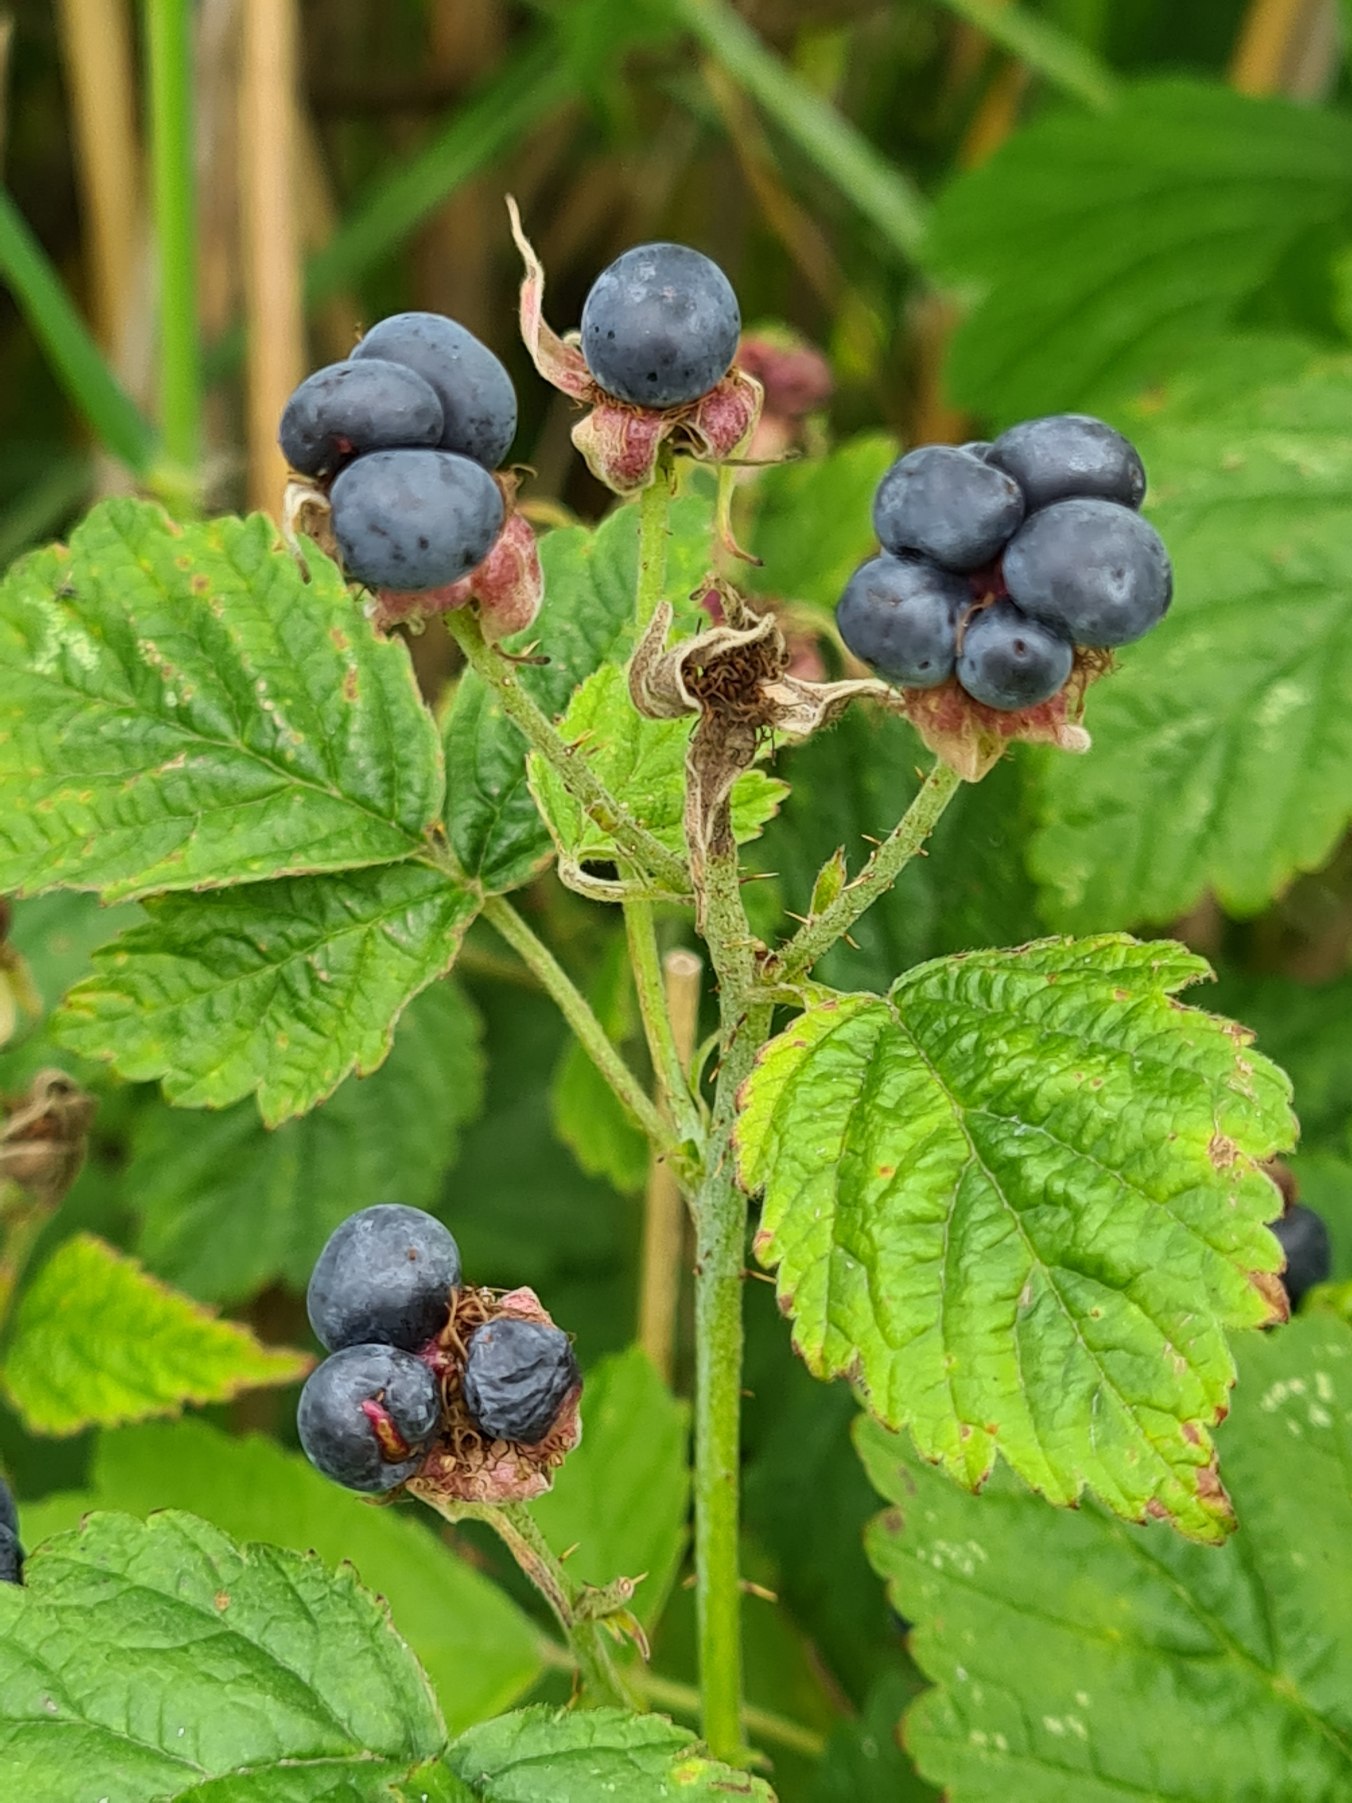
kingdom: Plantae
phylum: Tracheophyta
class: Magnoliopsida
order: Rosales
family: Rosaceae
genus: Rubus
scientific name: Rubus caesius
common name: Korbær
